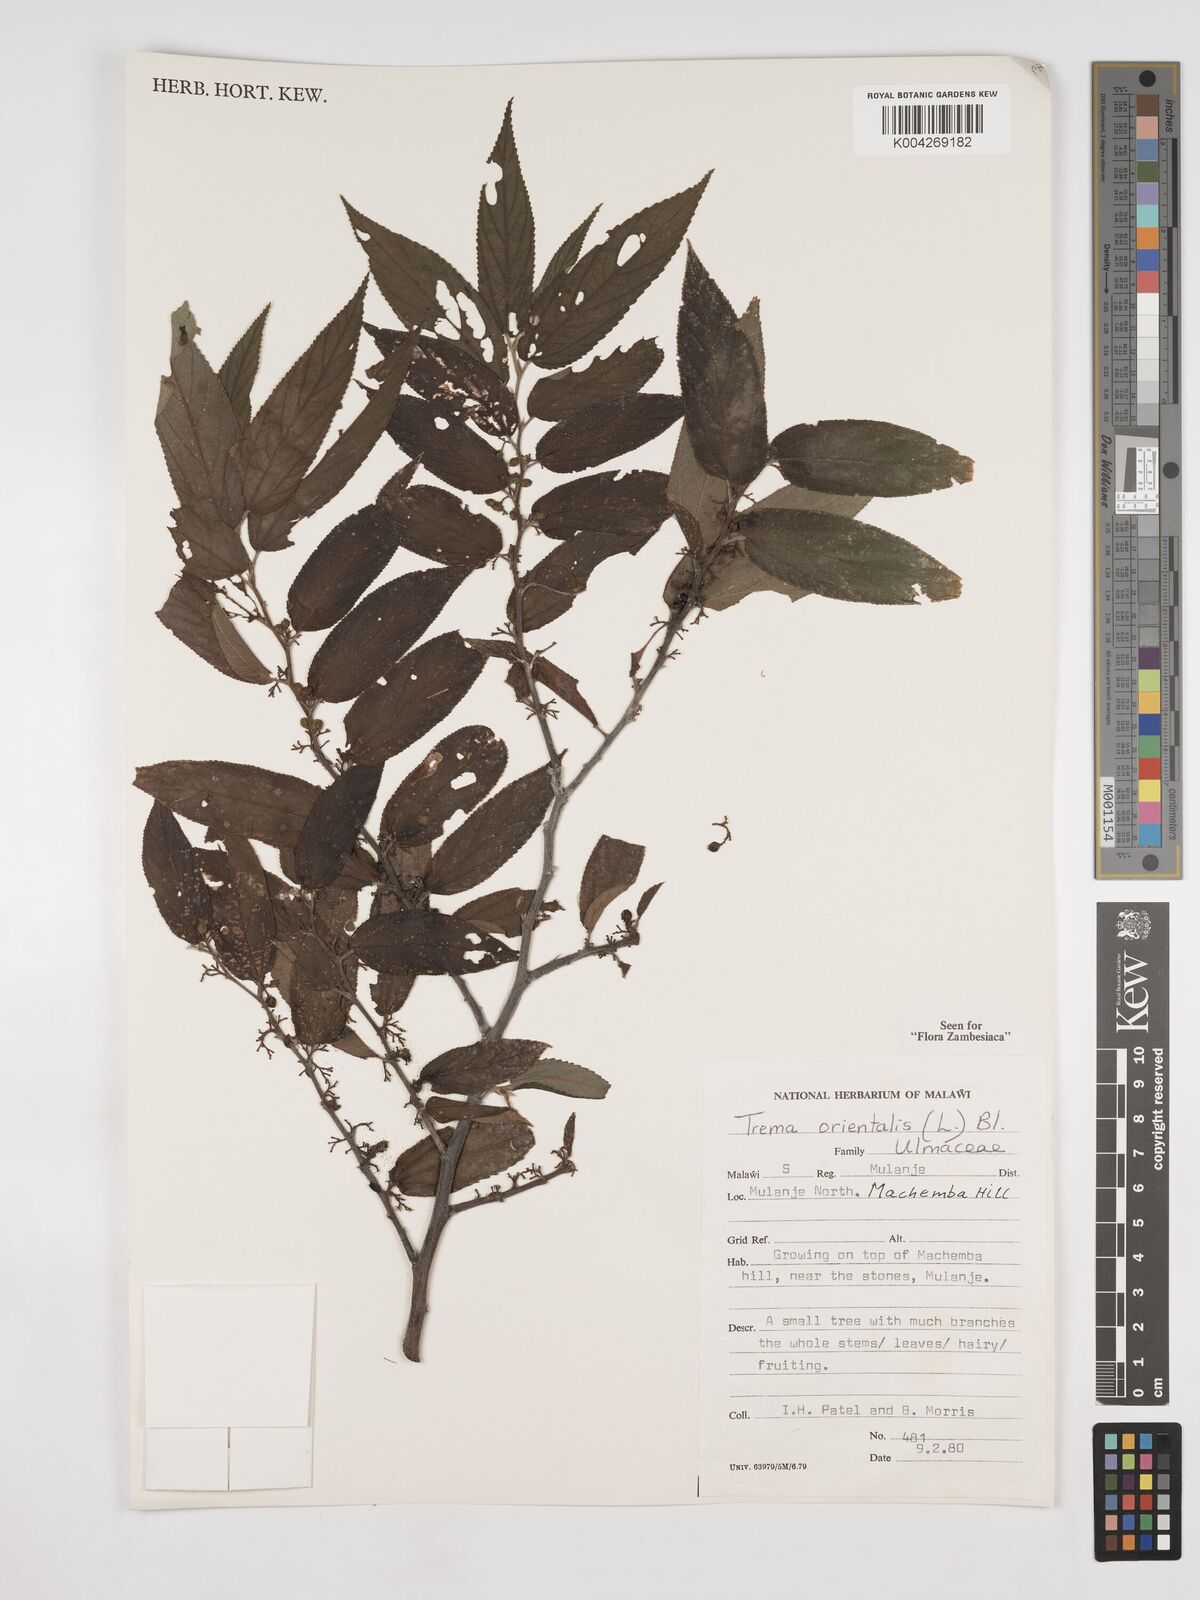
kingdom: Plantae
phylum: Tracheophyta
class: Magnoliopsida
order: Rosales
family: Cannabaceae
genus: Trema
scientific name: Trema orientale
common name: Indian charcoal tree
